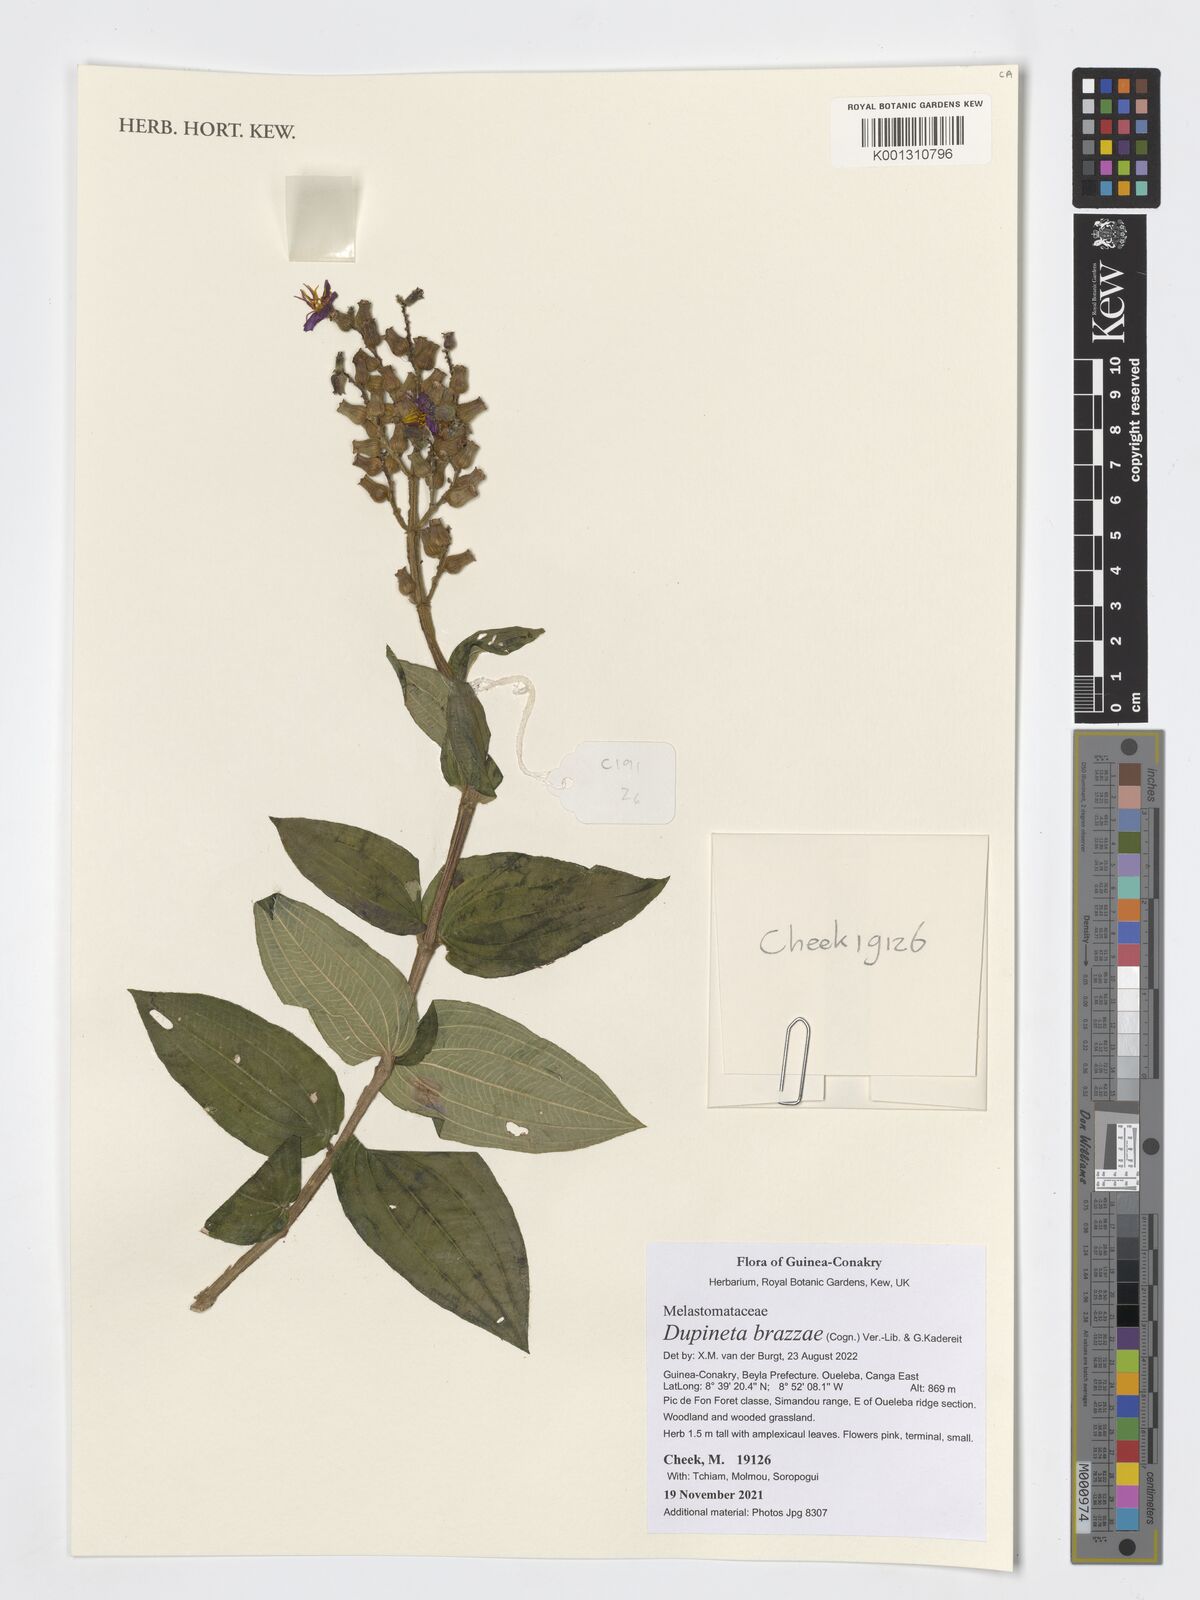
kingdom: Plantae
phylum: Tracheophyta
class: Magnoliopsida
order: Myrtales
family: Melastomataceae
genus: Dupineta
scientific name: Dupineta brazzae
